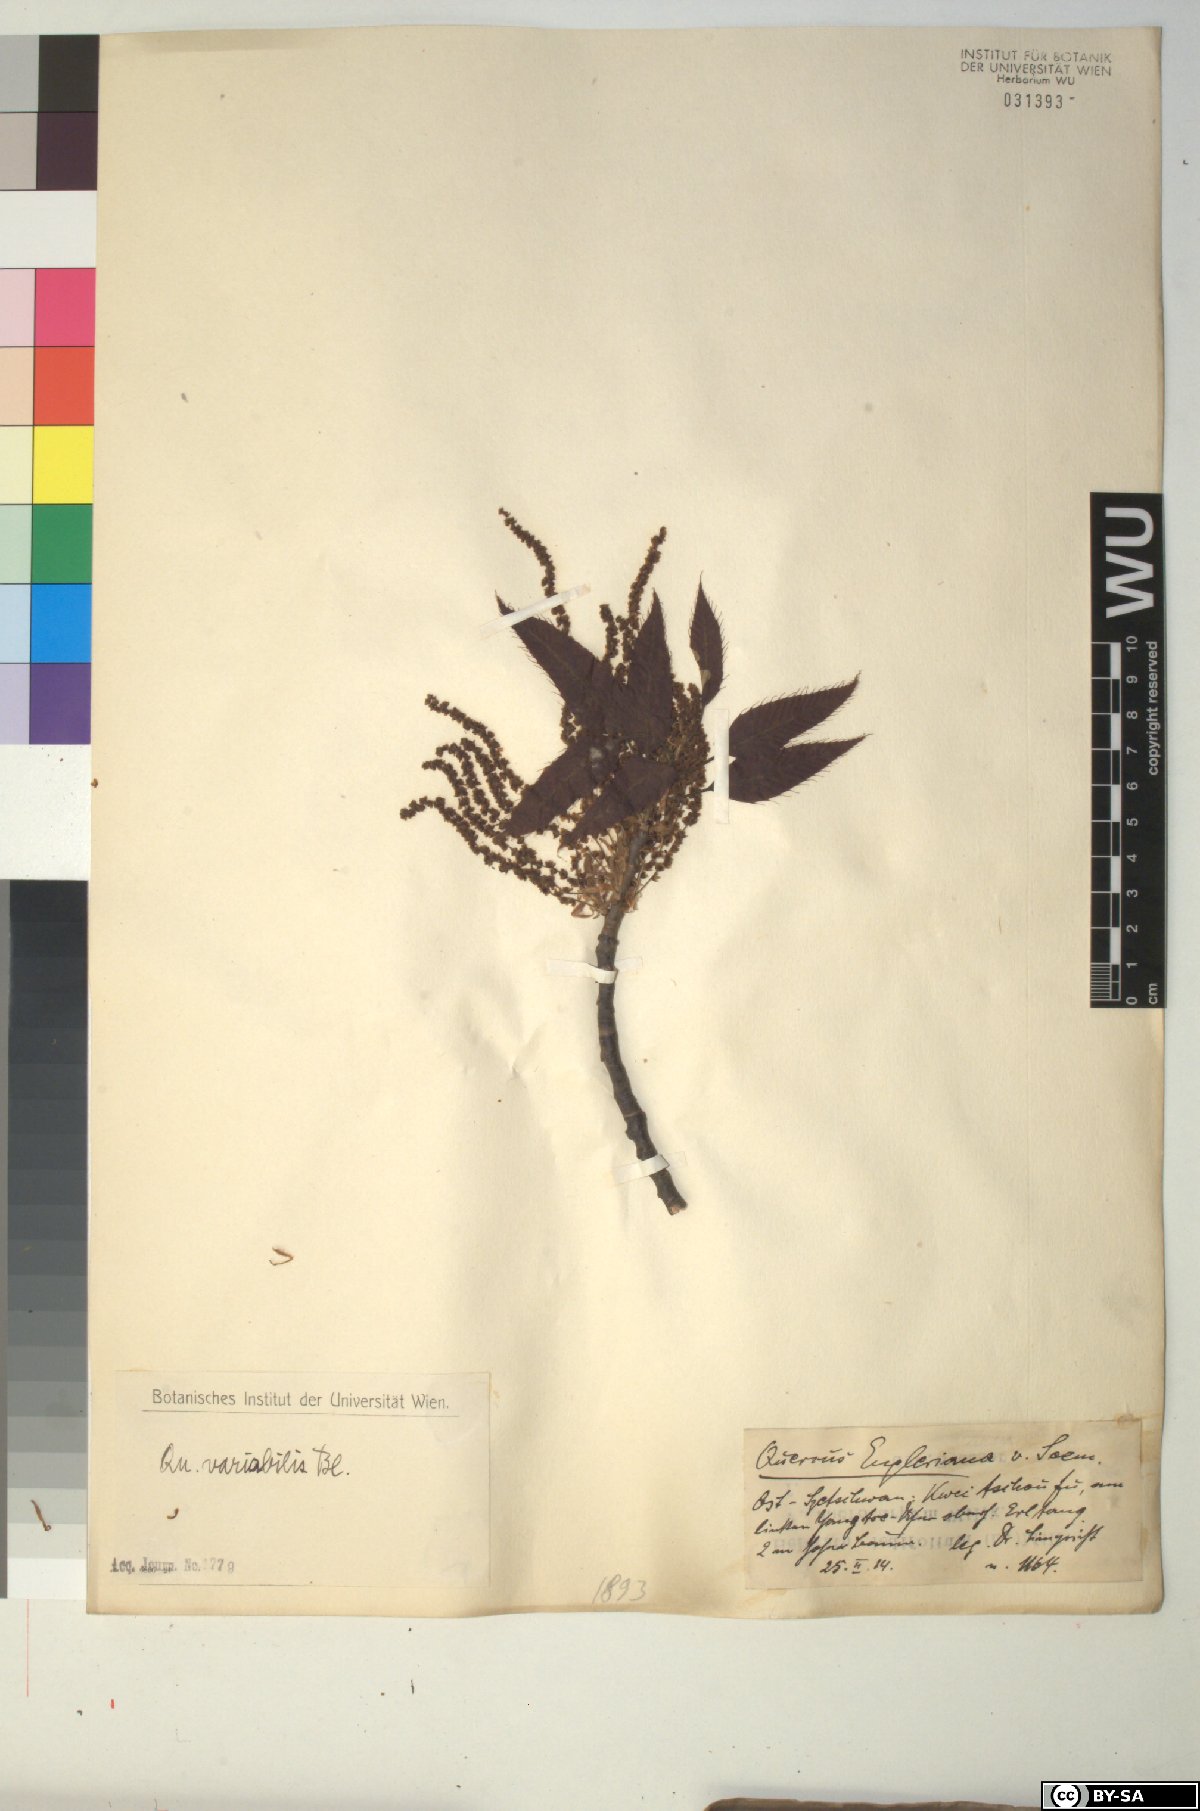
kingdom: Plantae
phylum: Tracheophyta
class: Magnoliopsida
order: Fagales
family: Fagaceae
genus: Quercus
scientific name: Quercus variabilis
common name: Chinese cork oak
